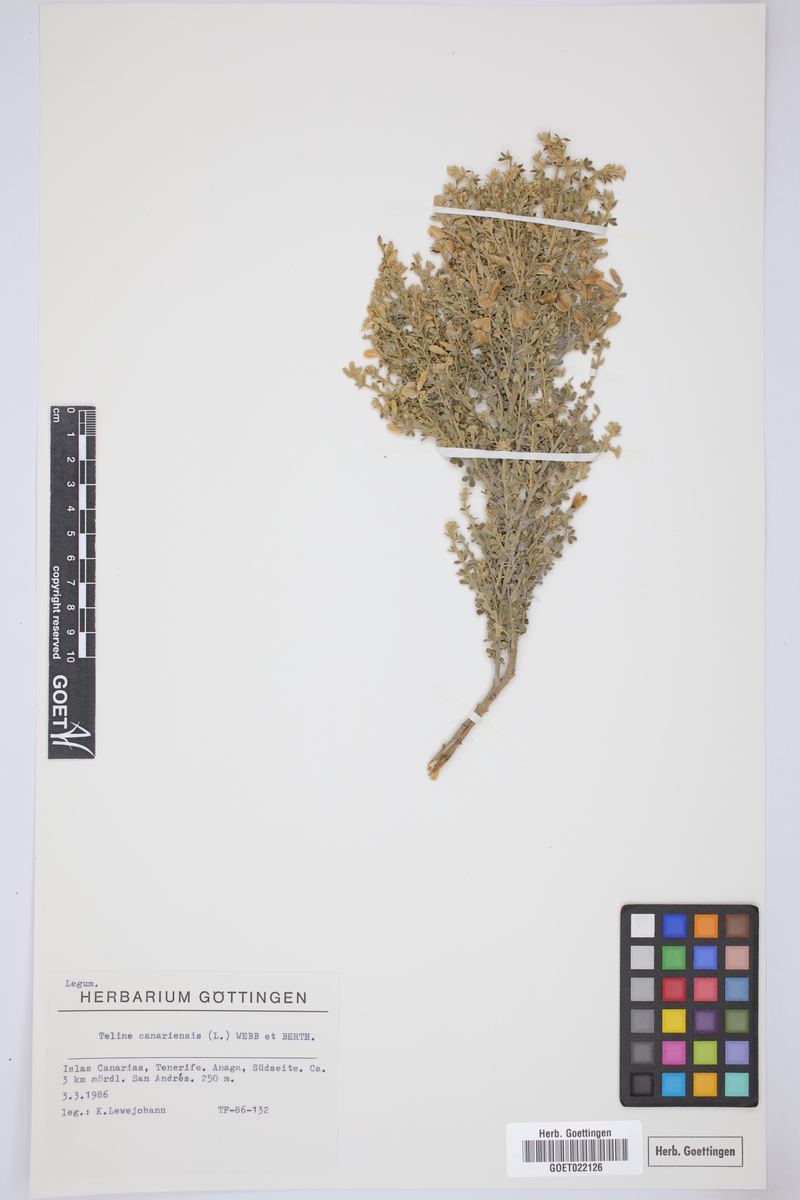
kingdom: Plantae
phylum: Tracheophyta
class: Magnoliopsida
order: Fabales
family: Fabaceae
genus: Genista
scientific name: Genista canariensis
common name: Canary broom
